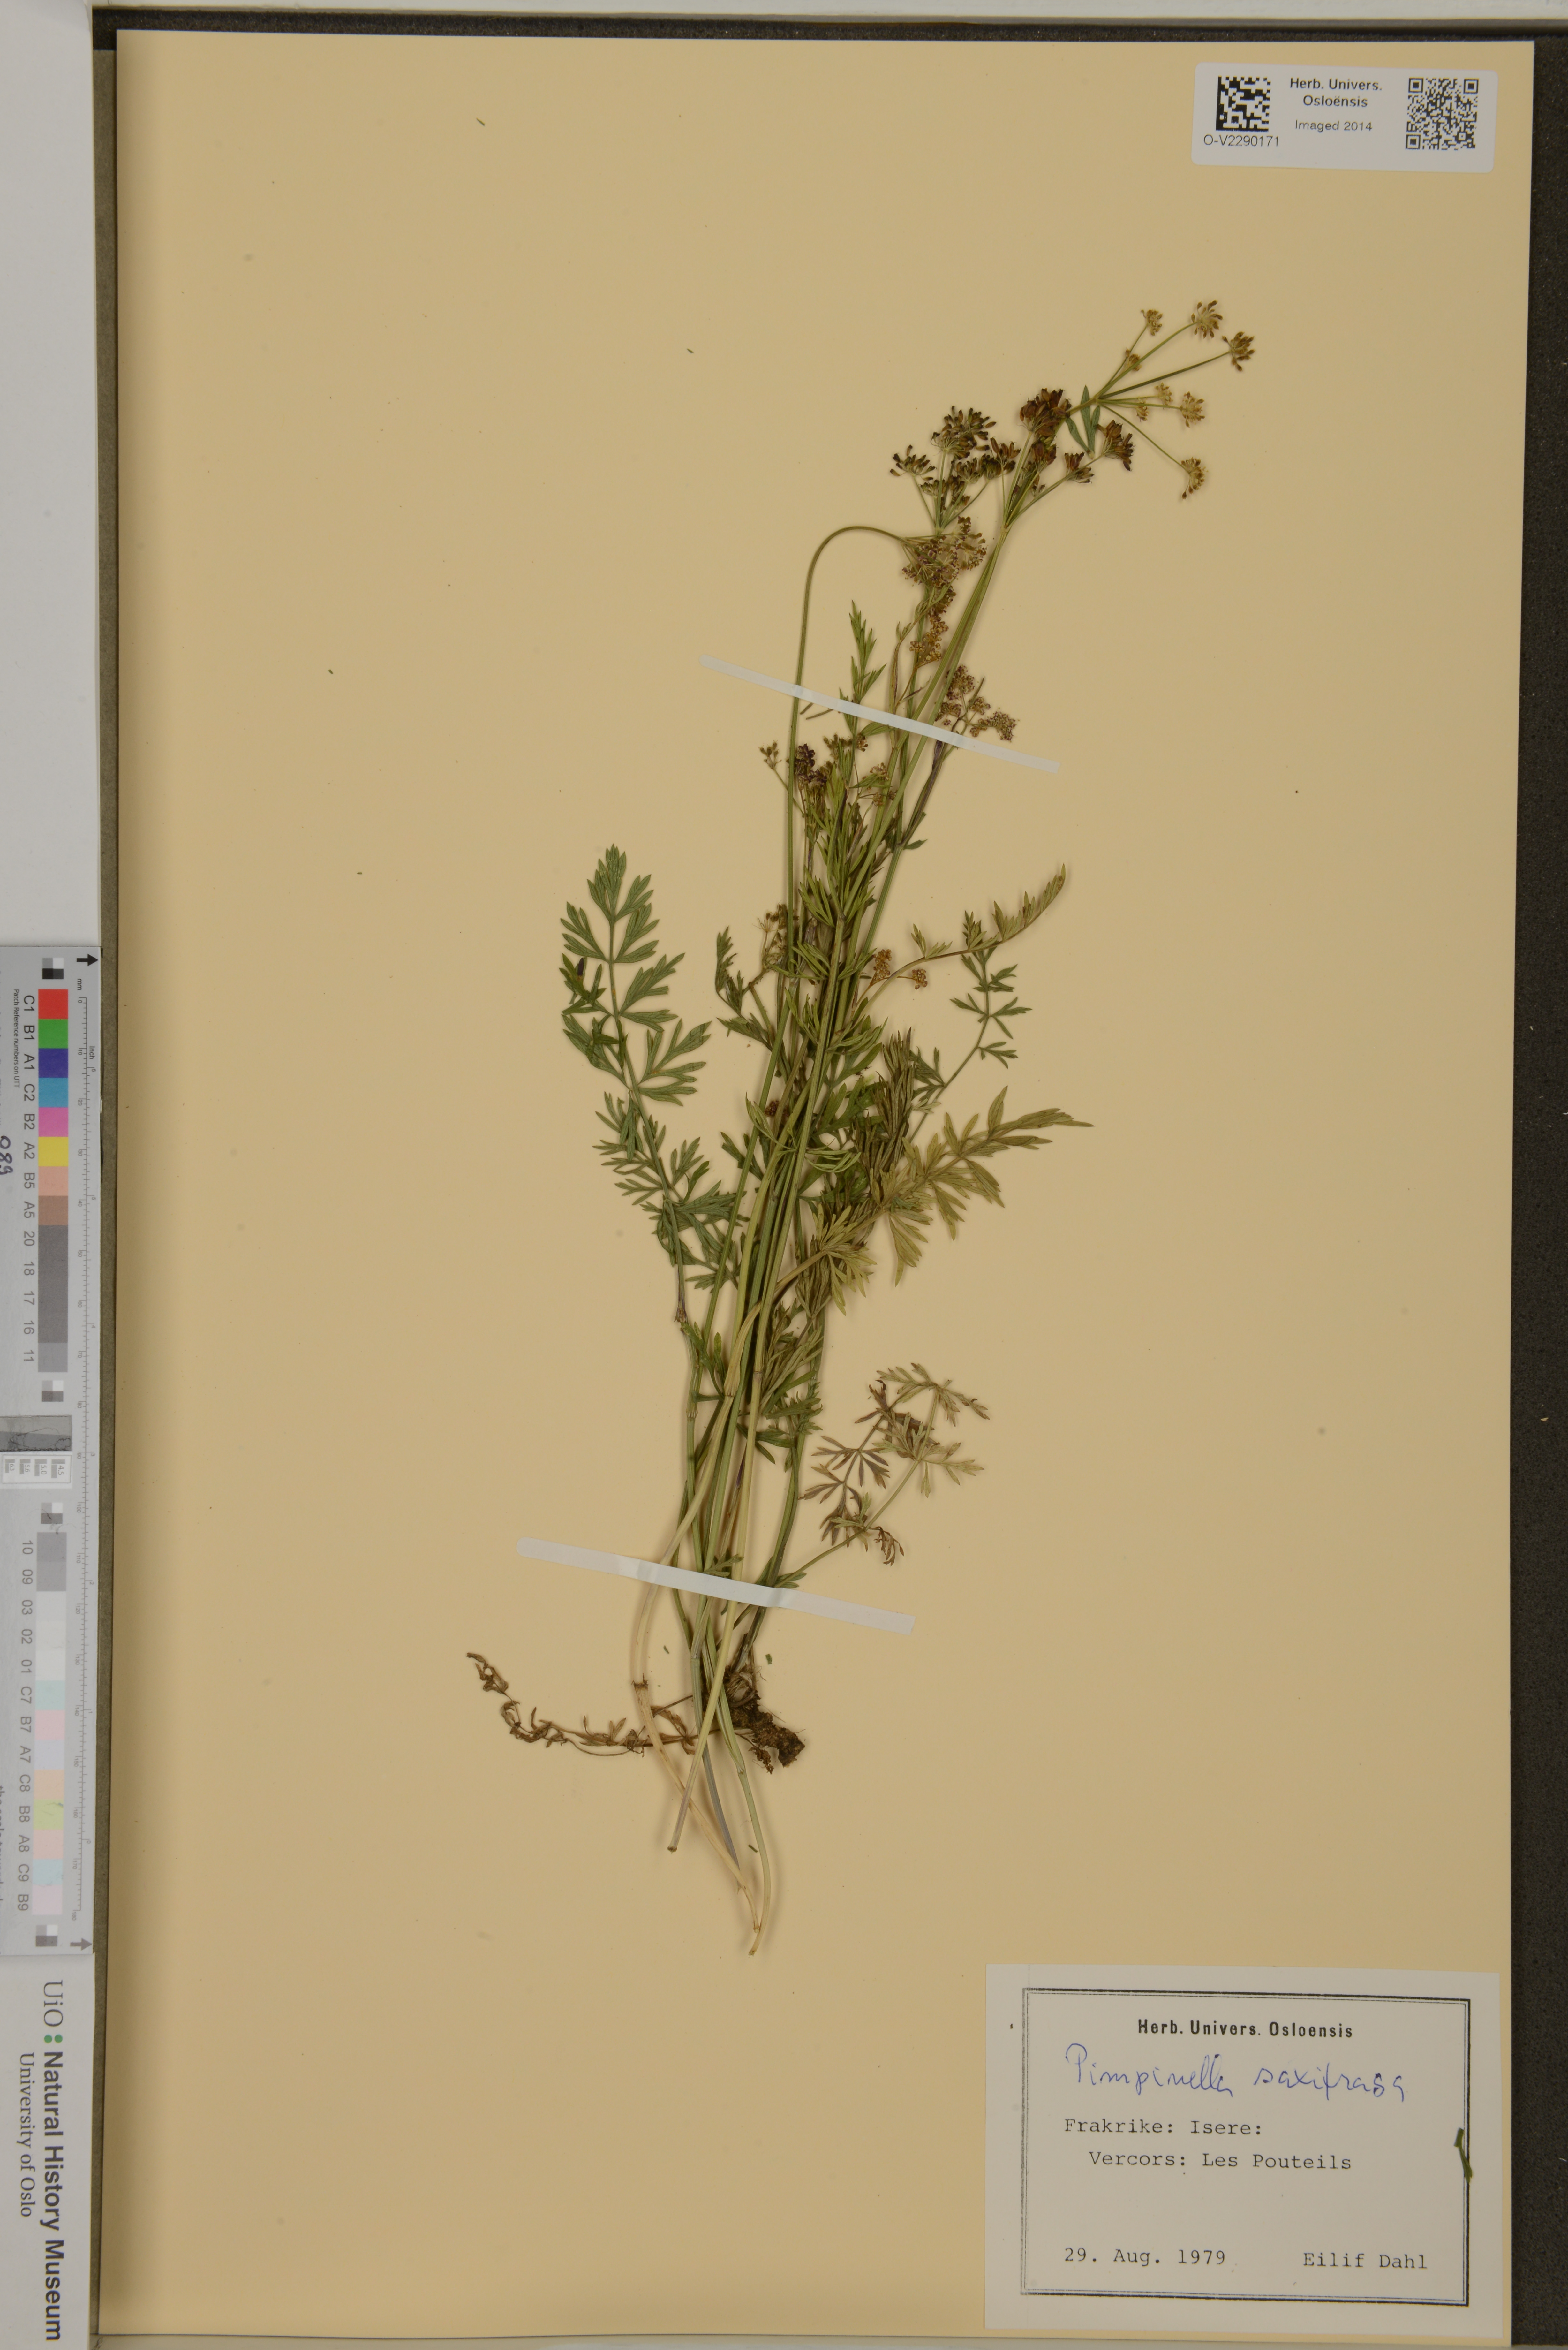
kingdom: Plantae
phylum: Tracheophyta
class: Magnoliopsida
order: Apiales
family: Apiaceae
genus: Pimpinella
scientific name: Pimpinella saxifraga
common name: Burnet-saxifrage
